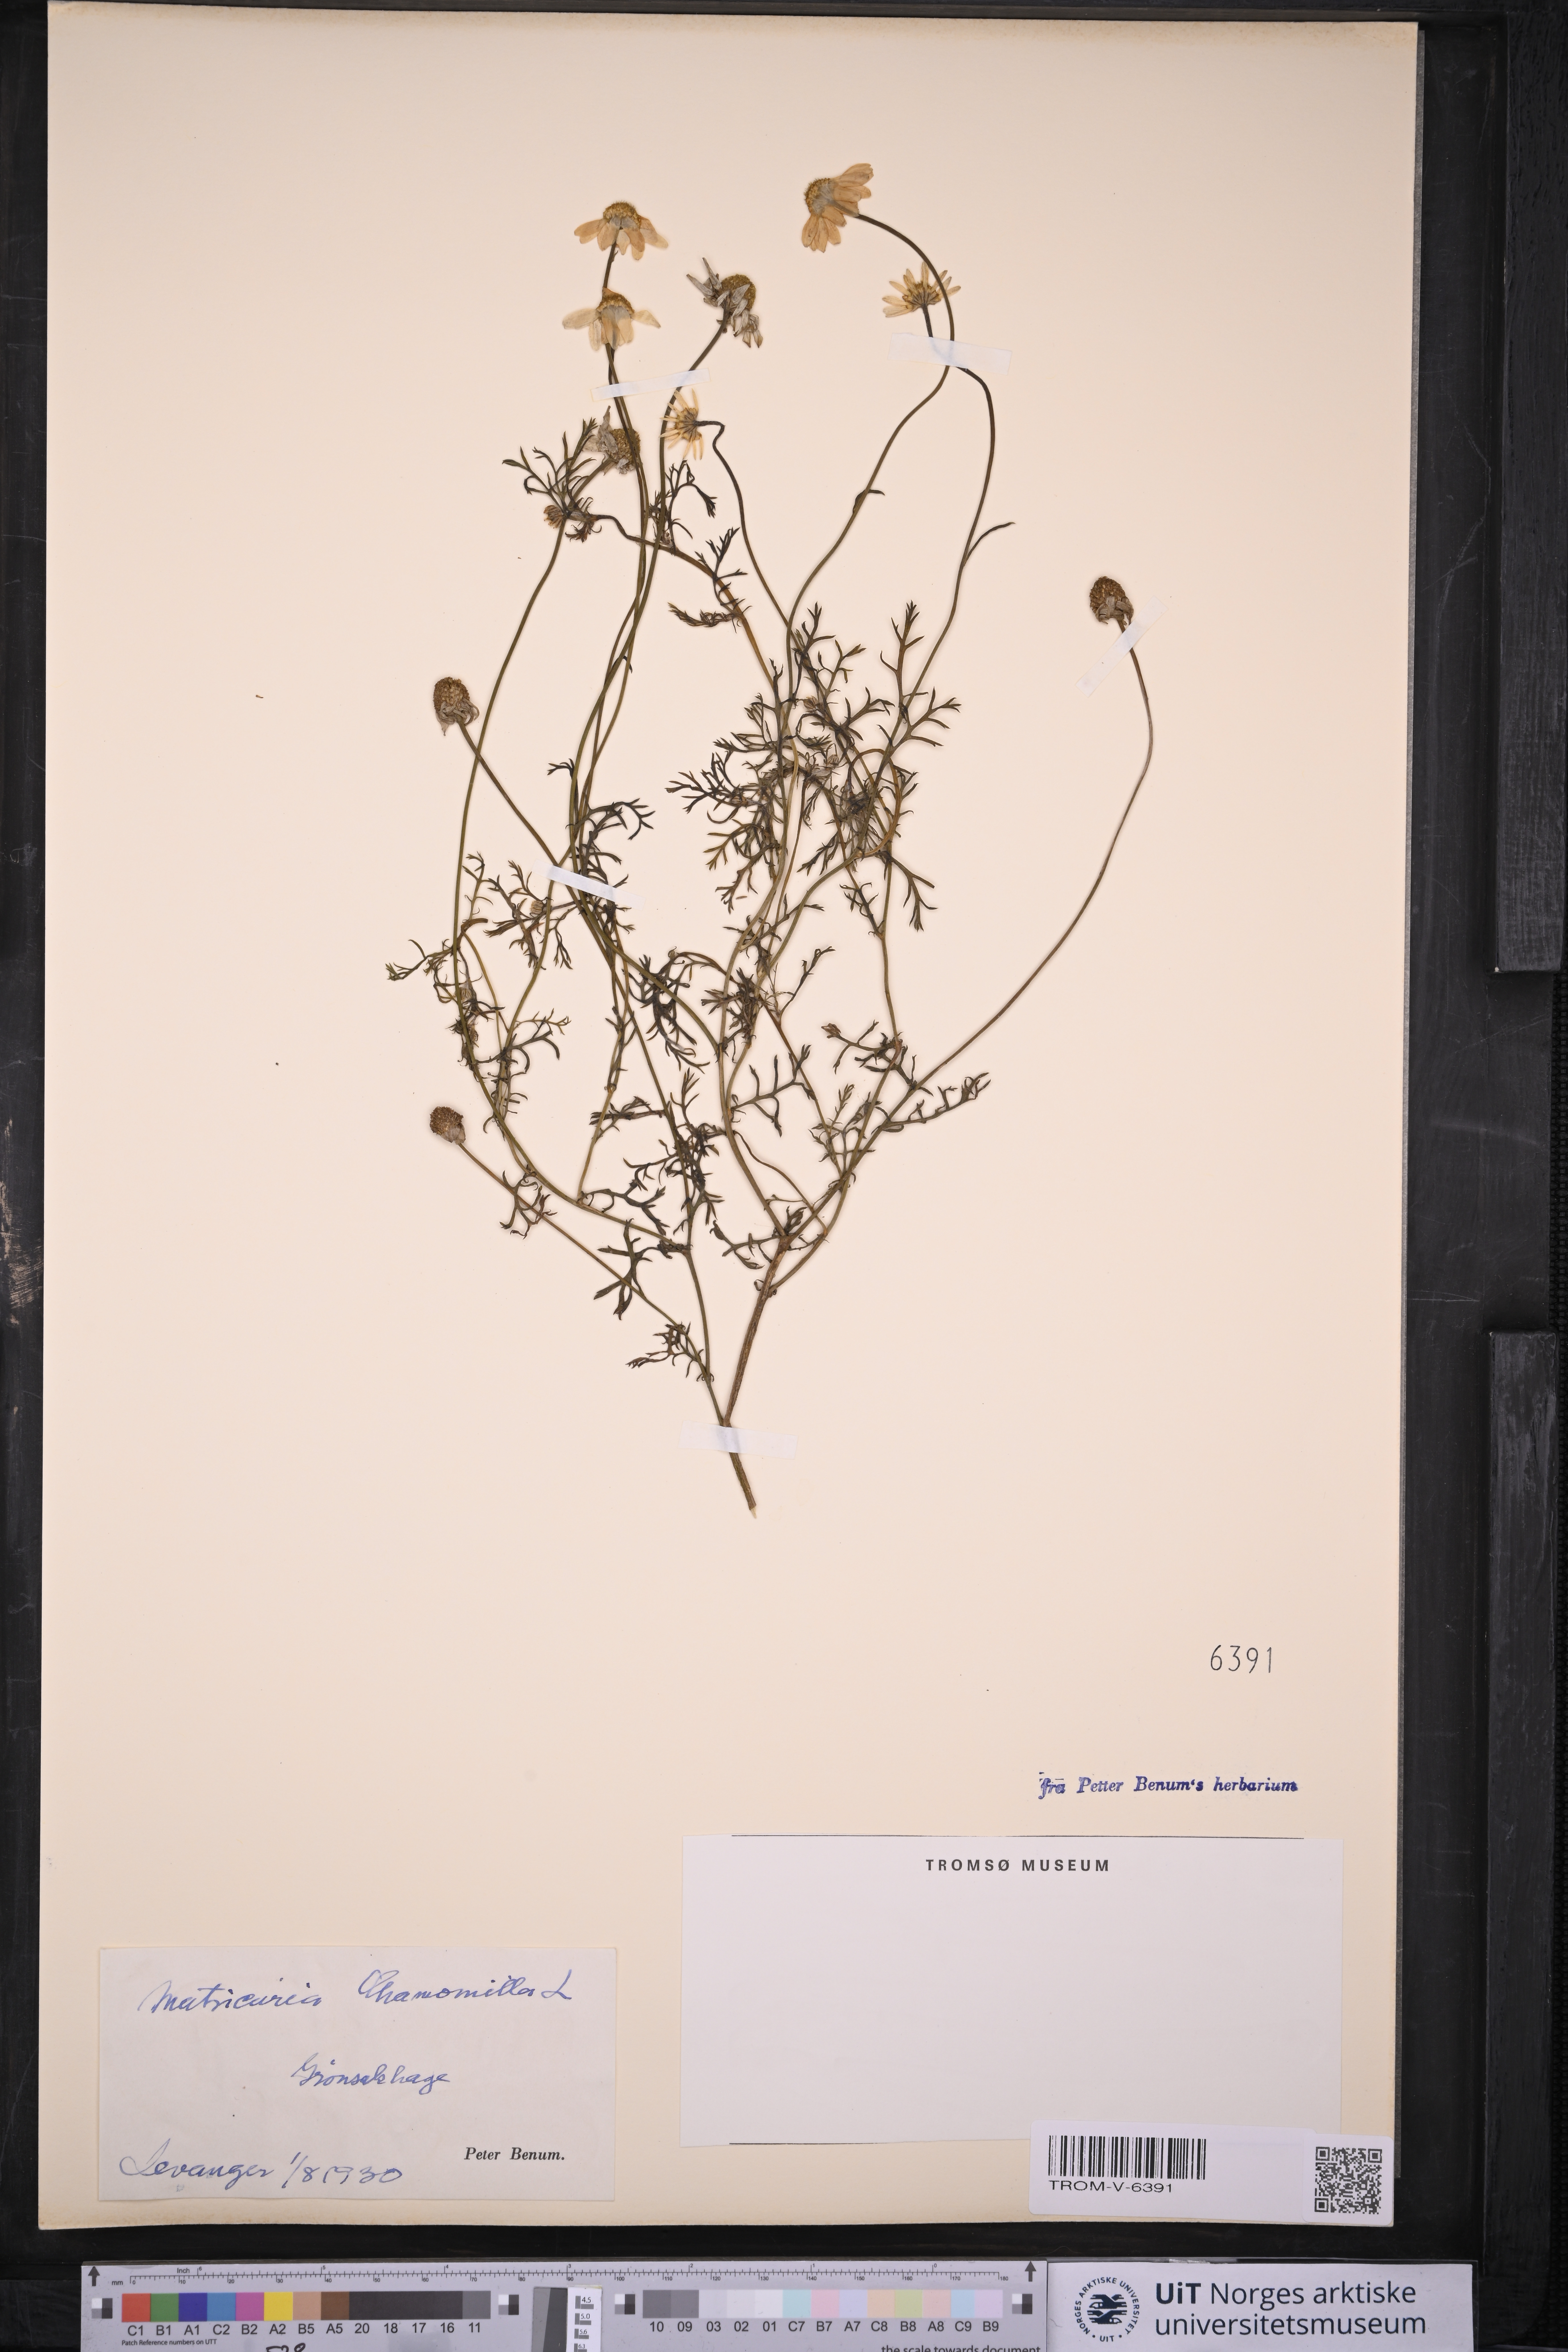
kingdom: Plantae
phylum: Tracheophyta
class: Magnoliopsida
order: Asterales
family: Asteraceae
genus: Matricaria
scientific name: Matricaria chamomilla
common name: Scented mayweed
